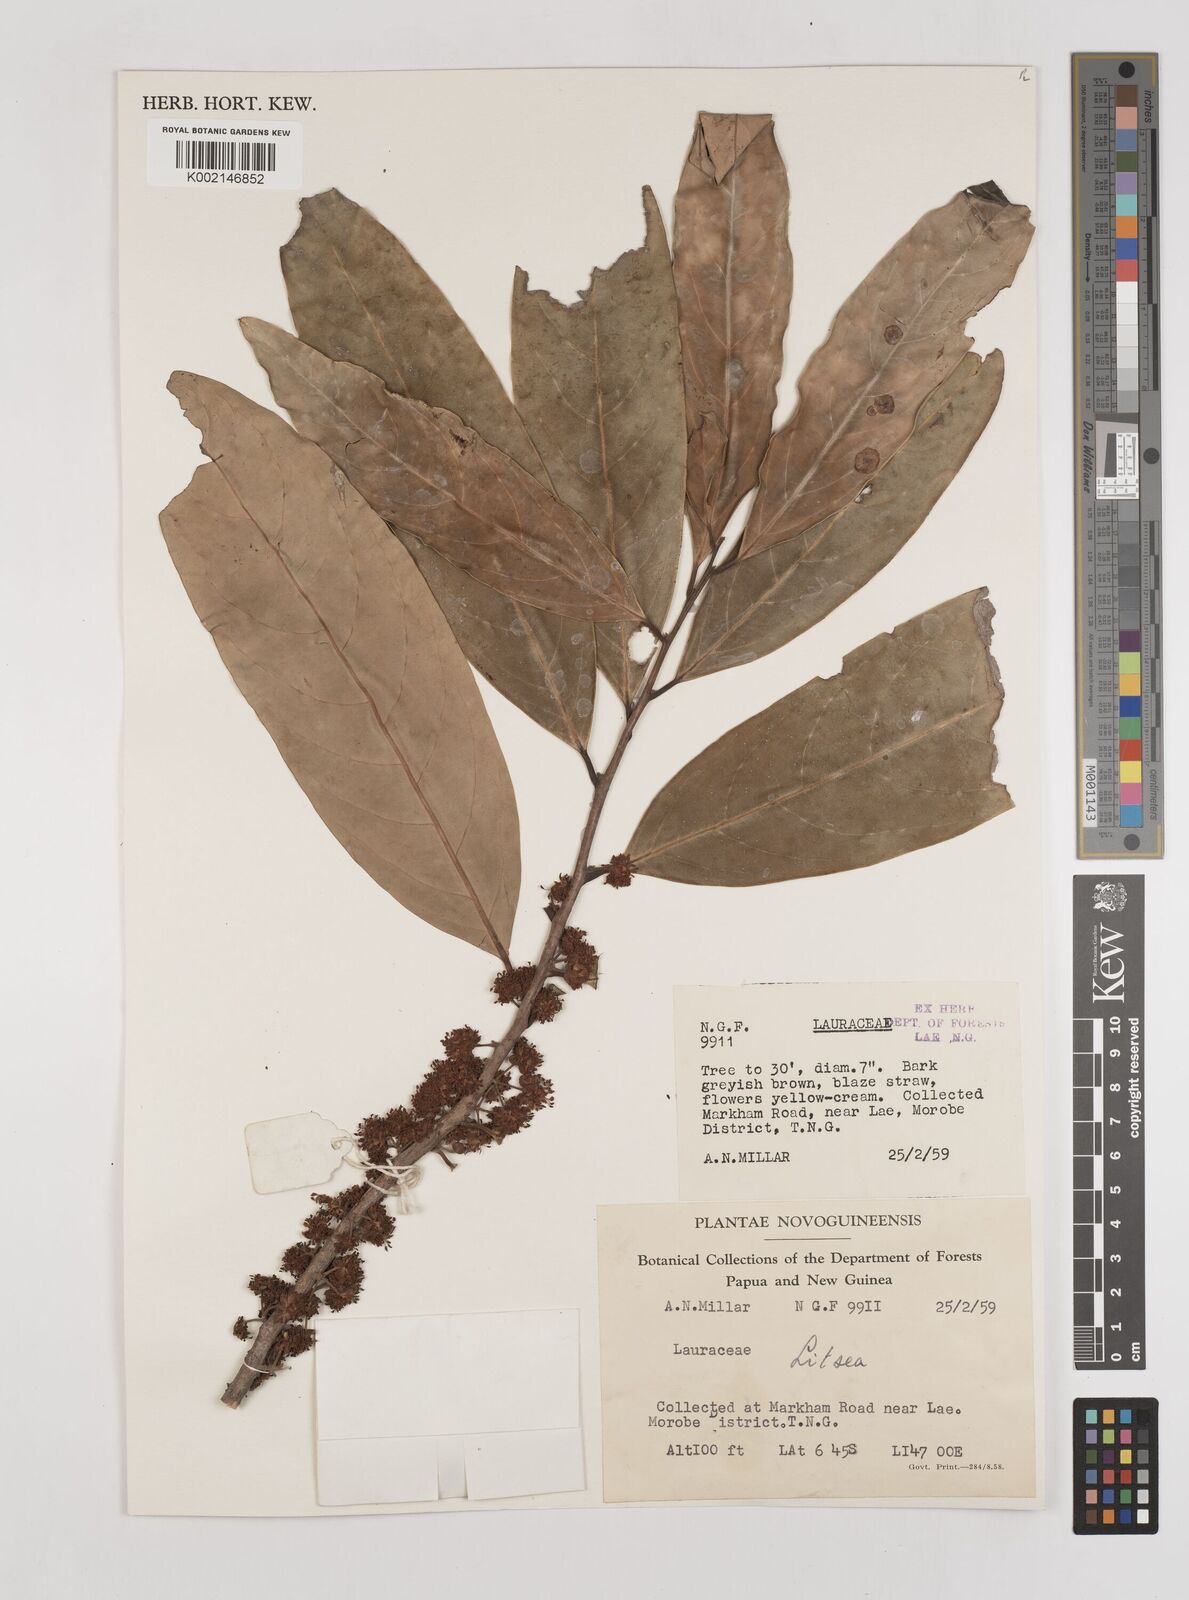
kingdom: Plantae
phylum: Tracheophyta
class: Magnoliopsida
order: Laurales
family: Lauraceae
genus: Litsea
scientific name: Litsea
